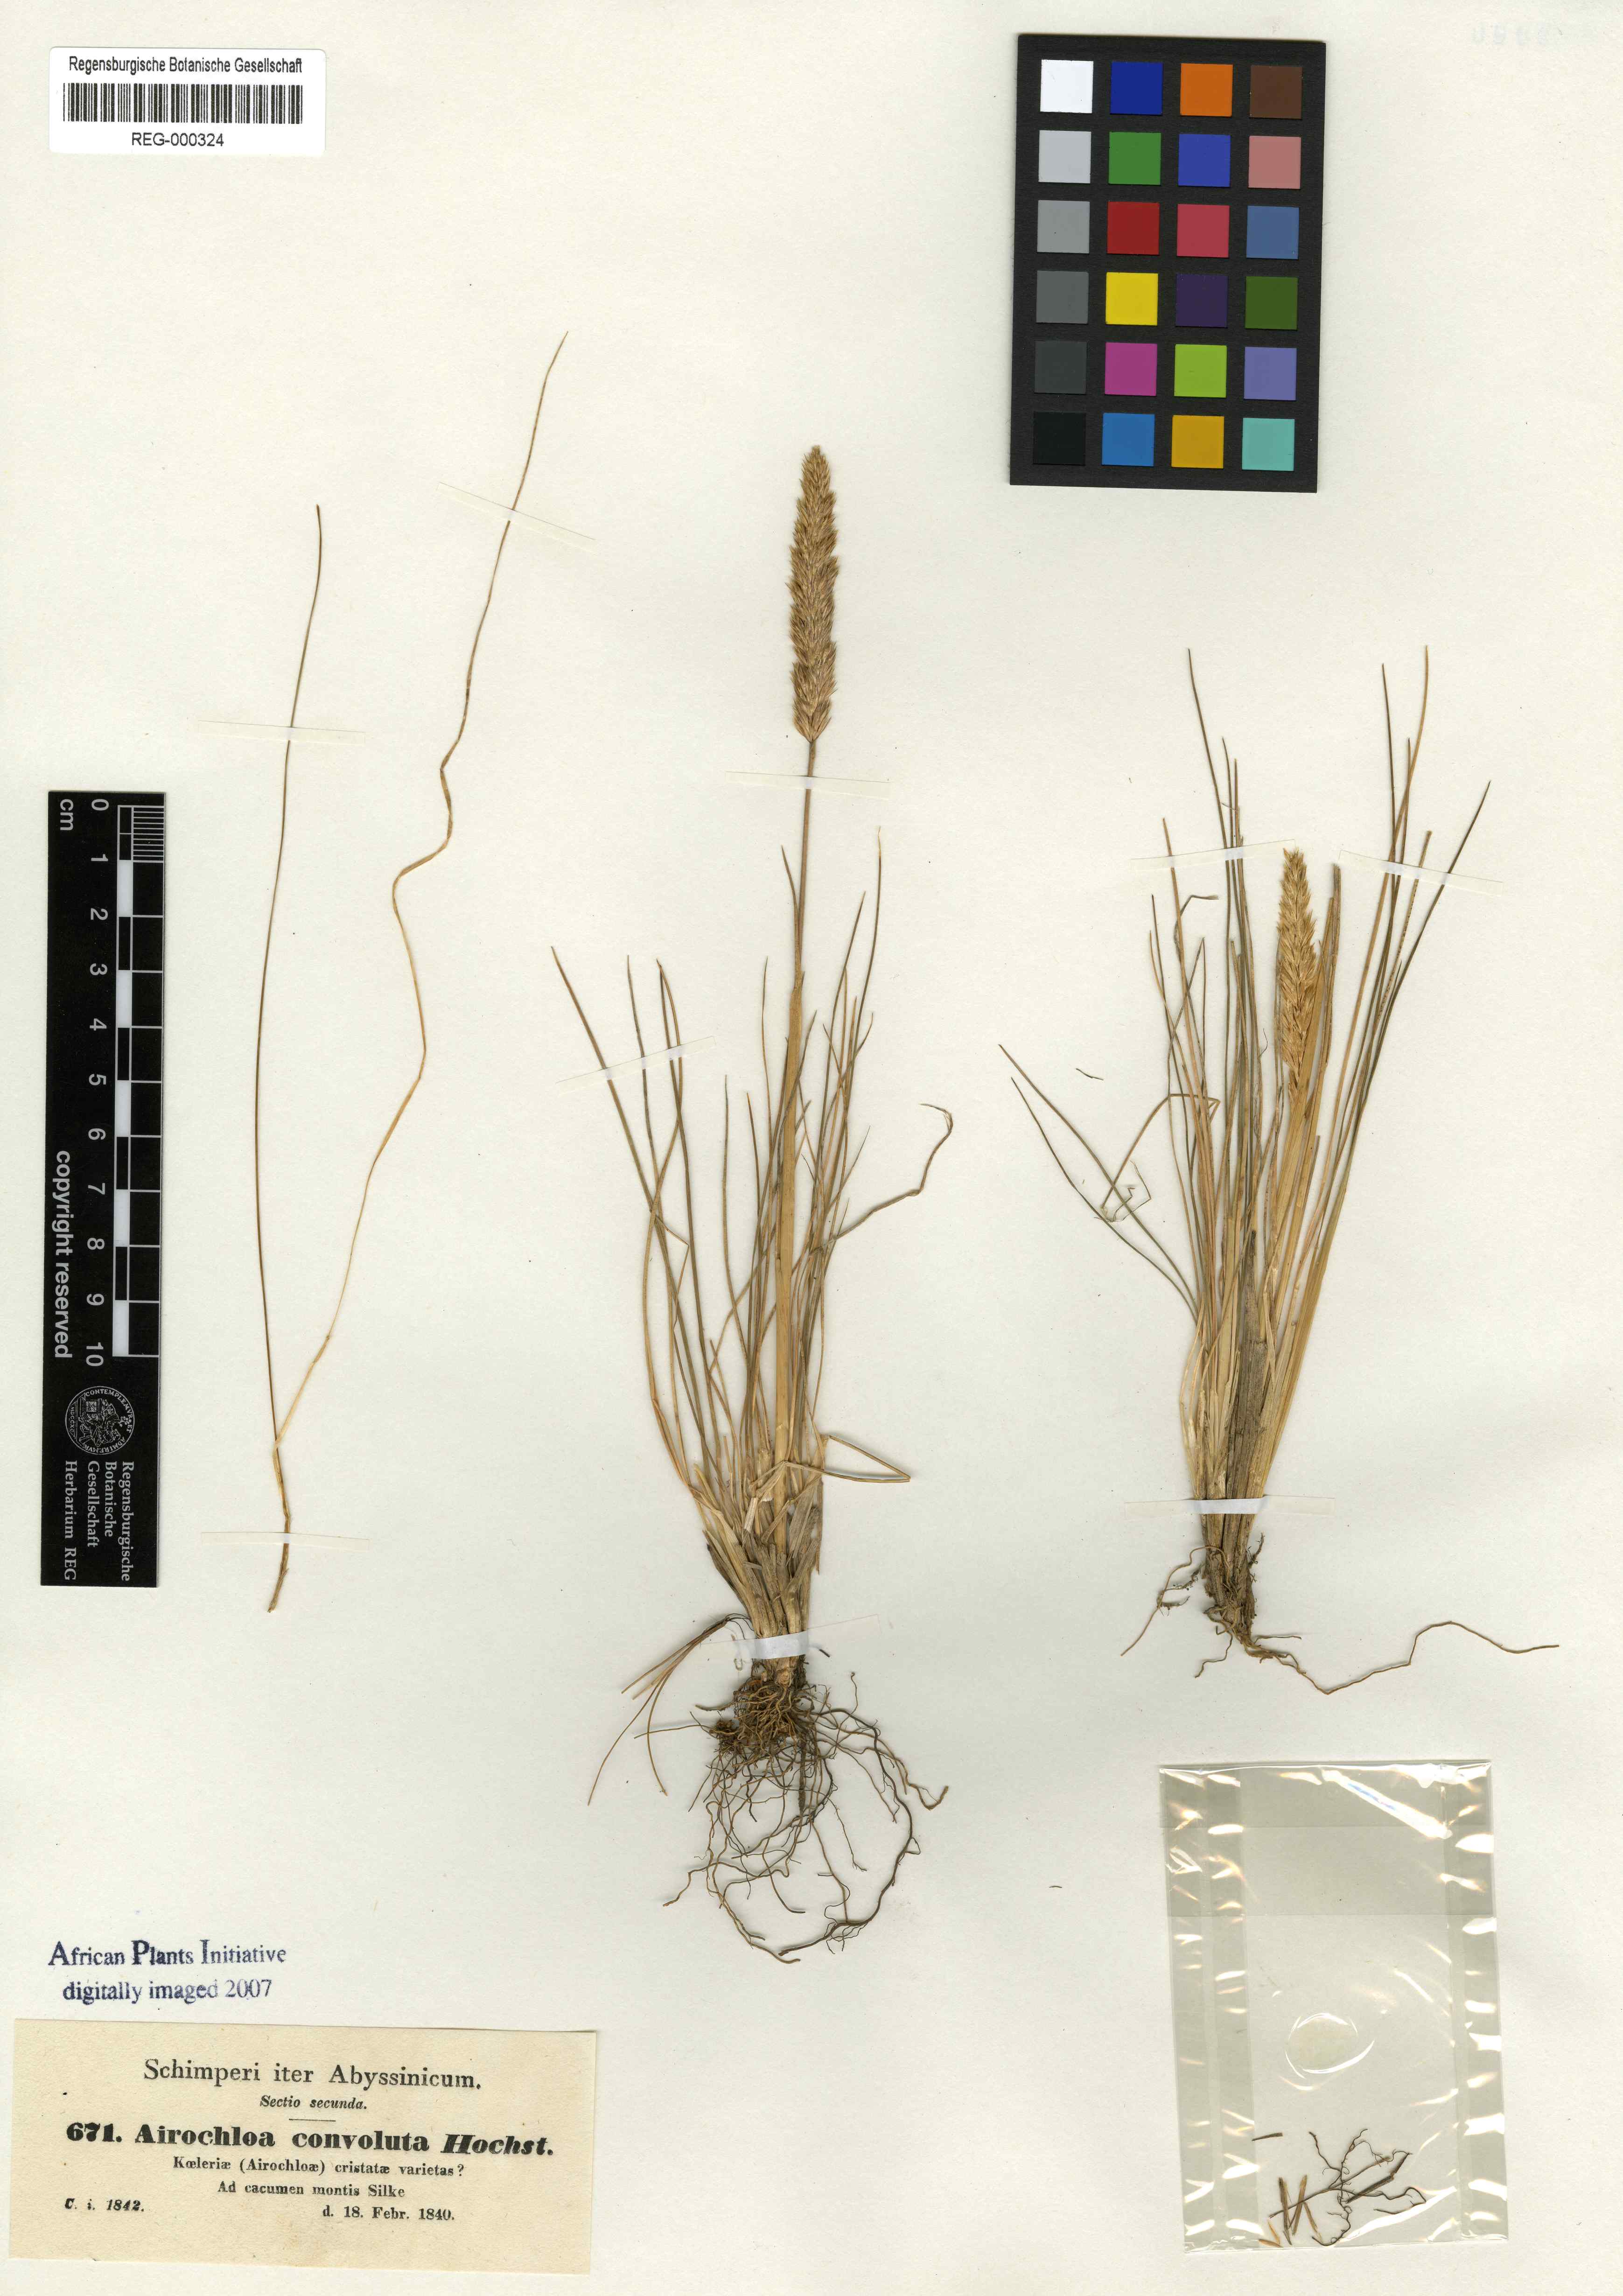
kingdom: Plantae
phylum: Tracheophyta
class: Liliopsida
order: Poales
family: Poaceae
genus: Koeleria
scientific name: Koeleria capensis
